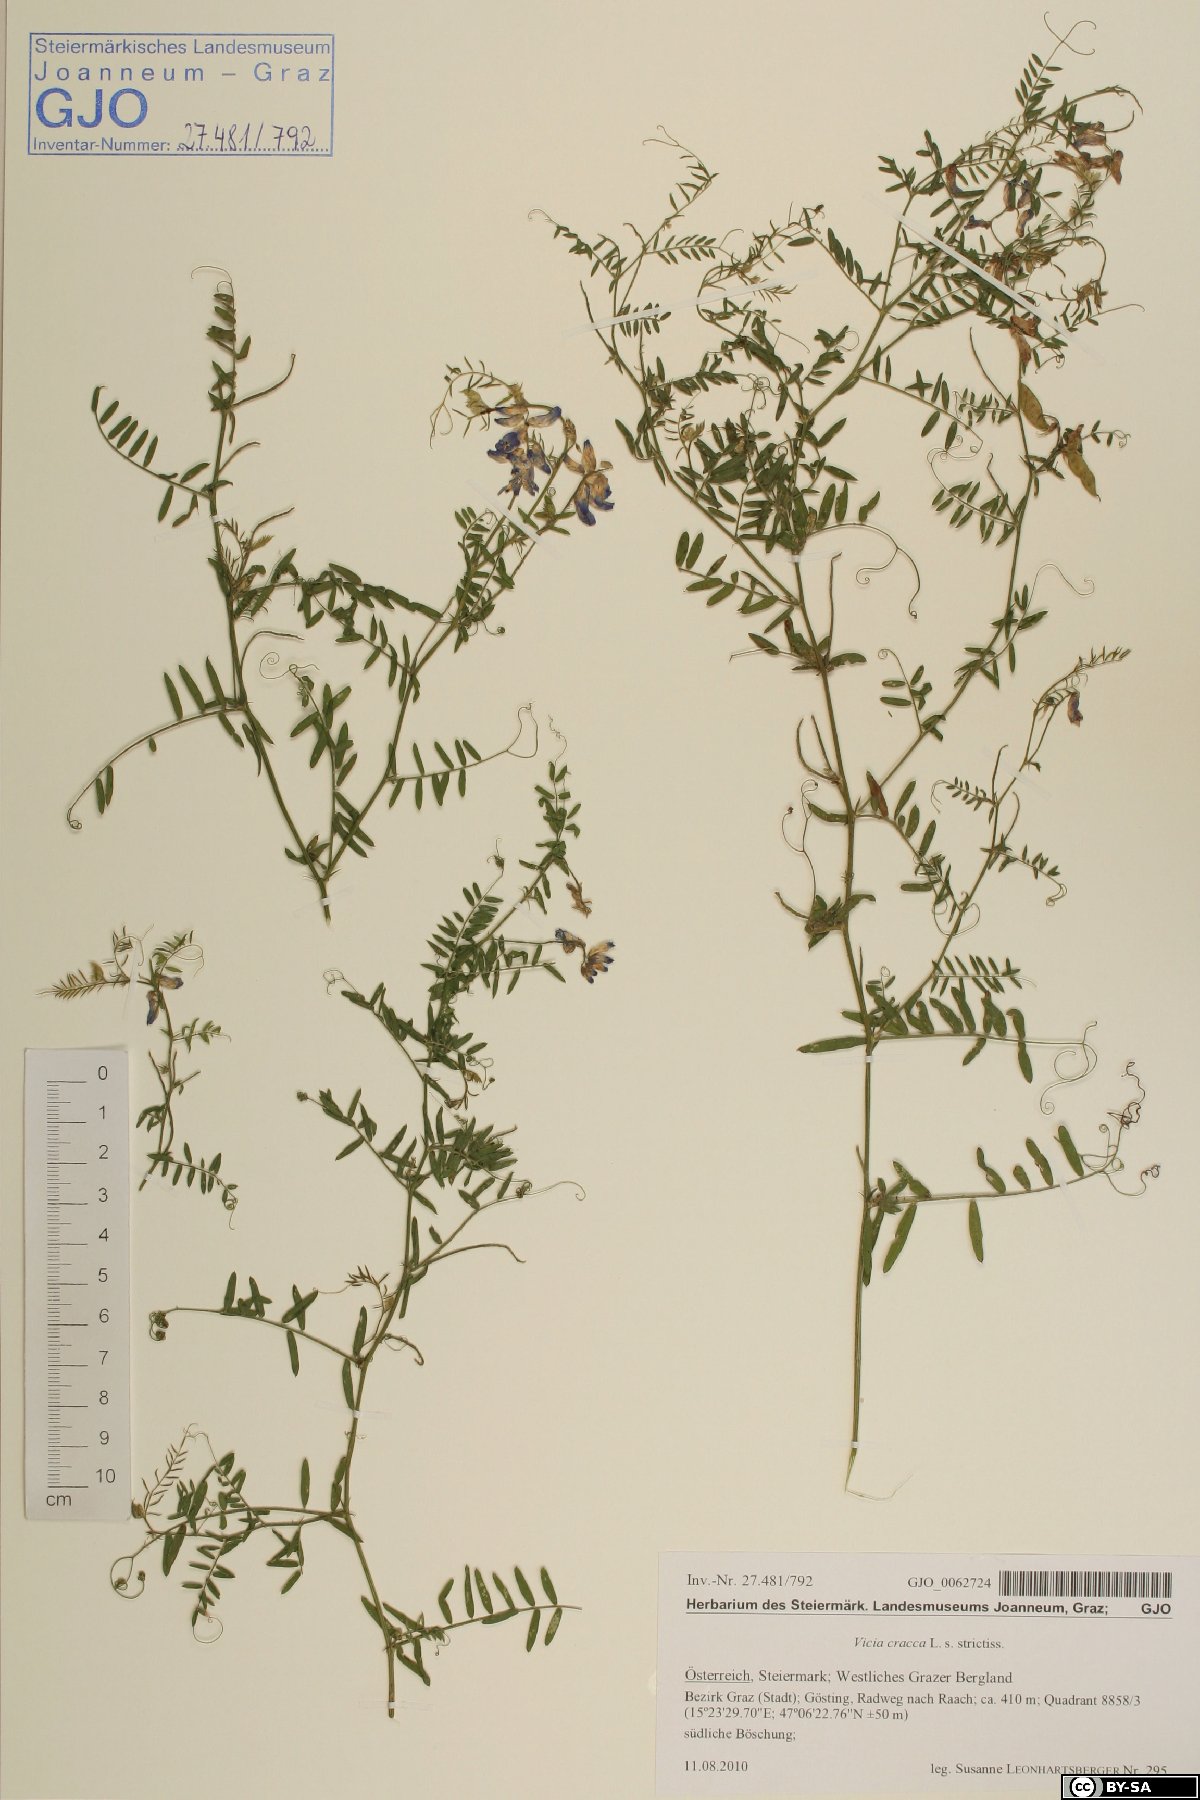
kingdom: Plantae
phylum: Tracheophyta
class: Magnoliopsida
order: Fabales
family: Fabaceae
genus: Vicia
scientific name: Vicia cracca
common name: Bird vetch
